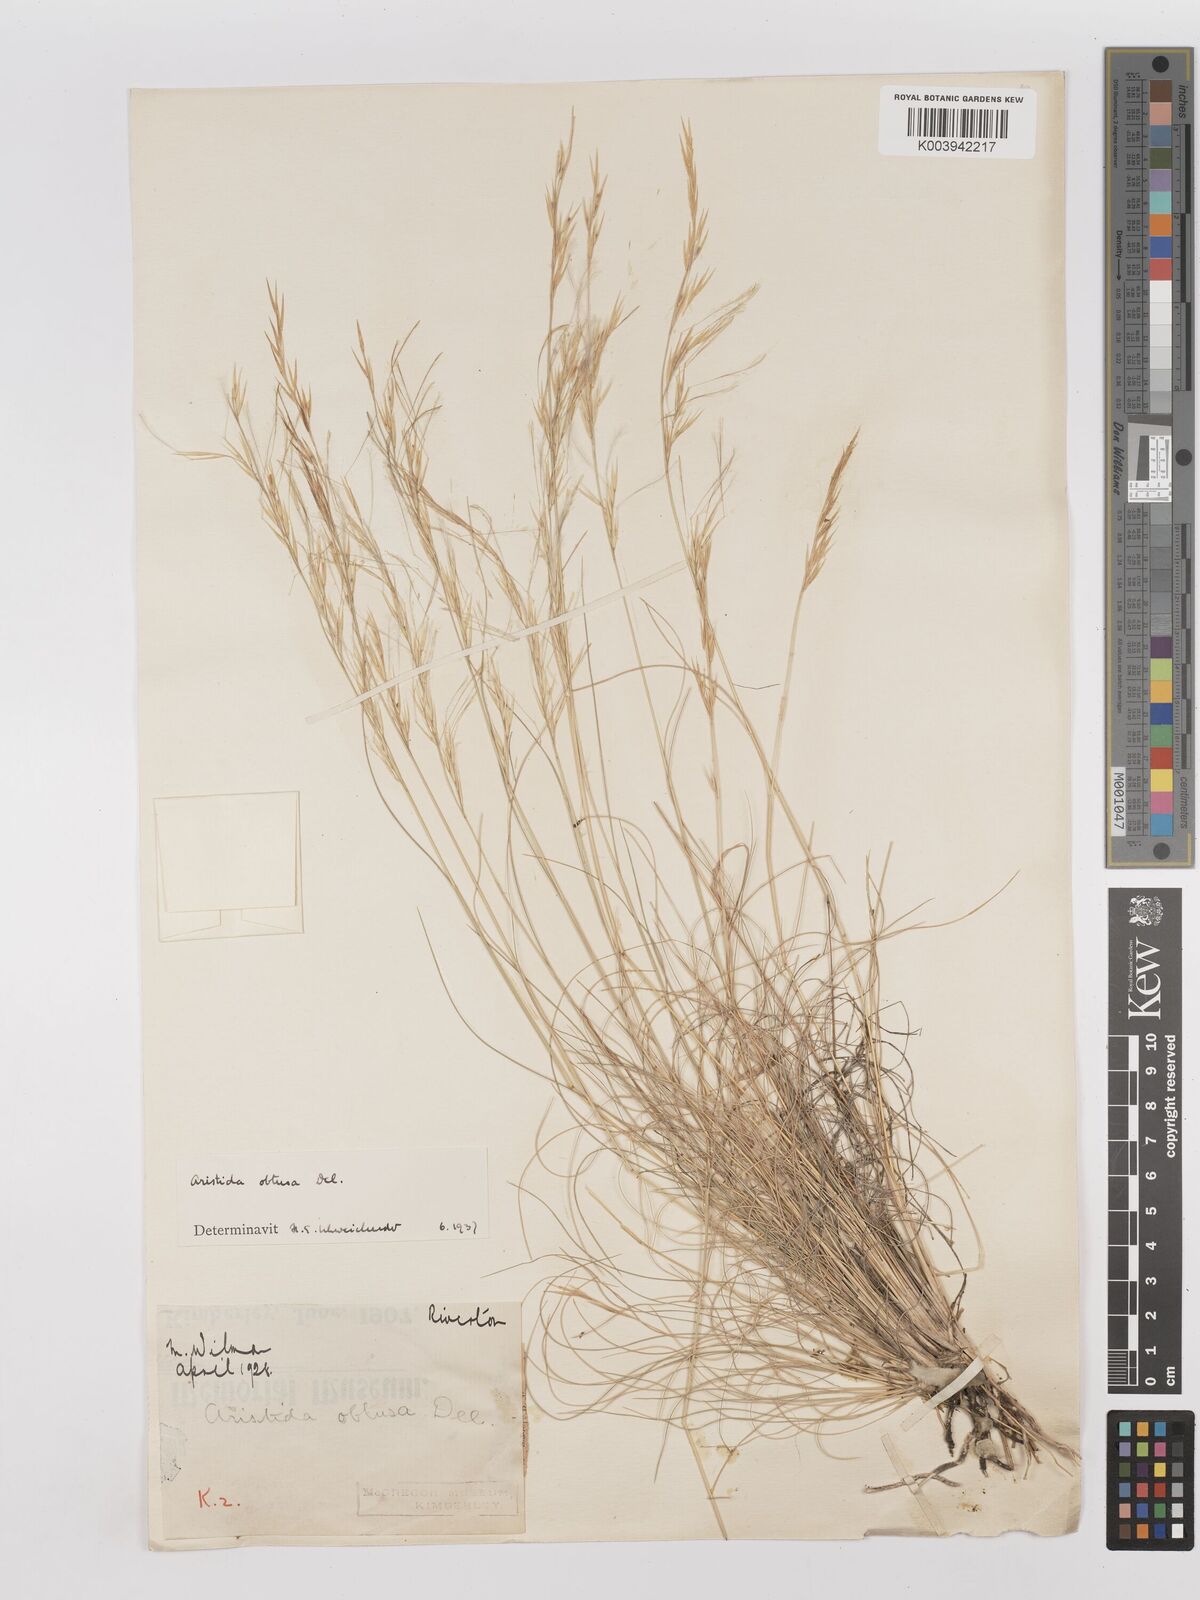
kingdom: Plantae
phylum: Tracheophyta
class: Liliopsida
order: Poales
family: Poaceae
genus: Stipagrostis
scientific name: Stipagrostis obtusa
